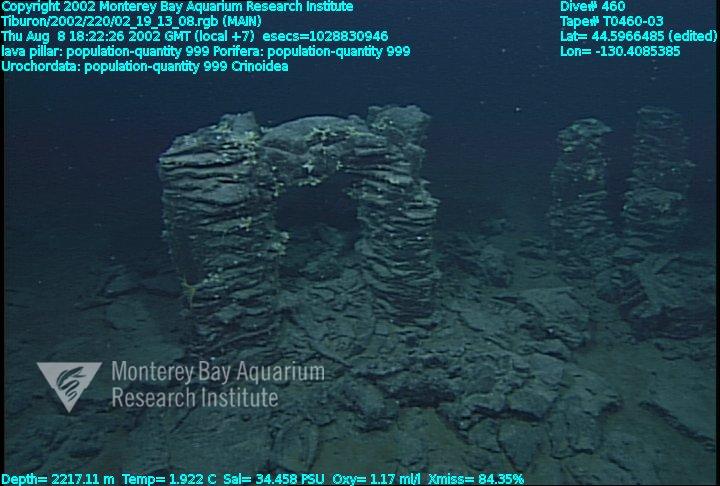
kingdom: Animalia
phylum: Porifera
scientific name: Porifera
